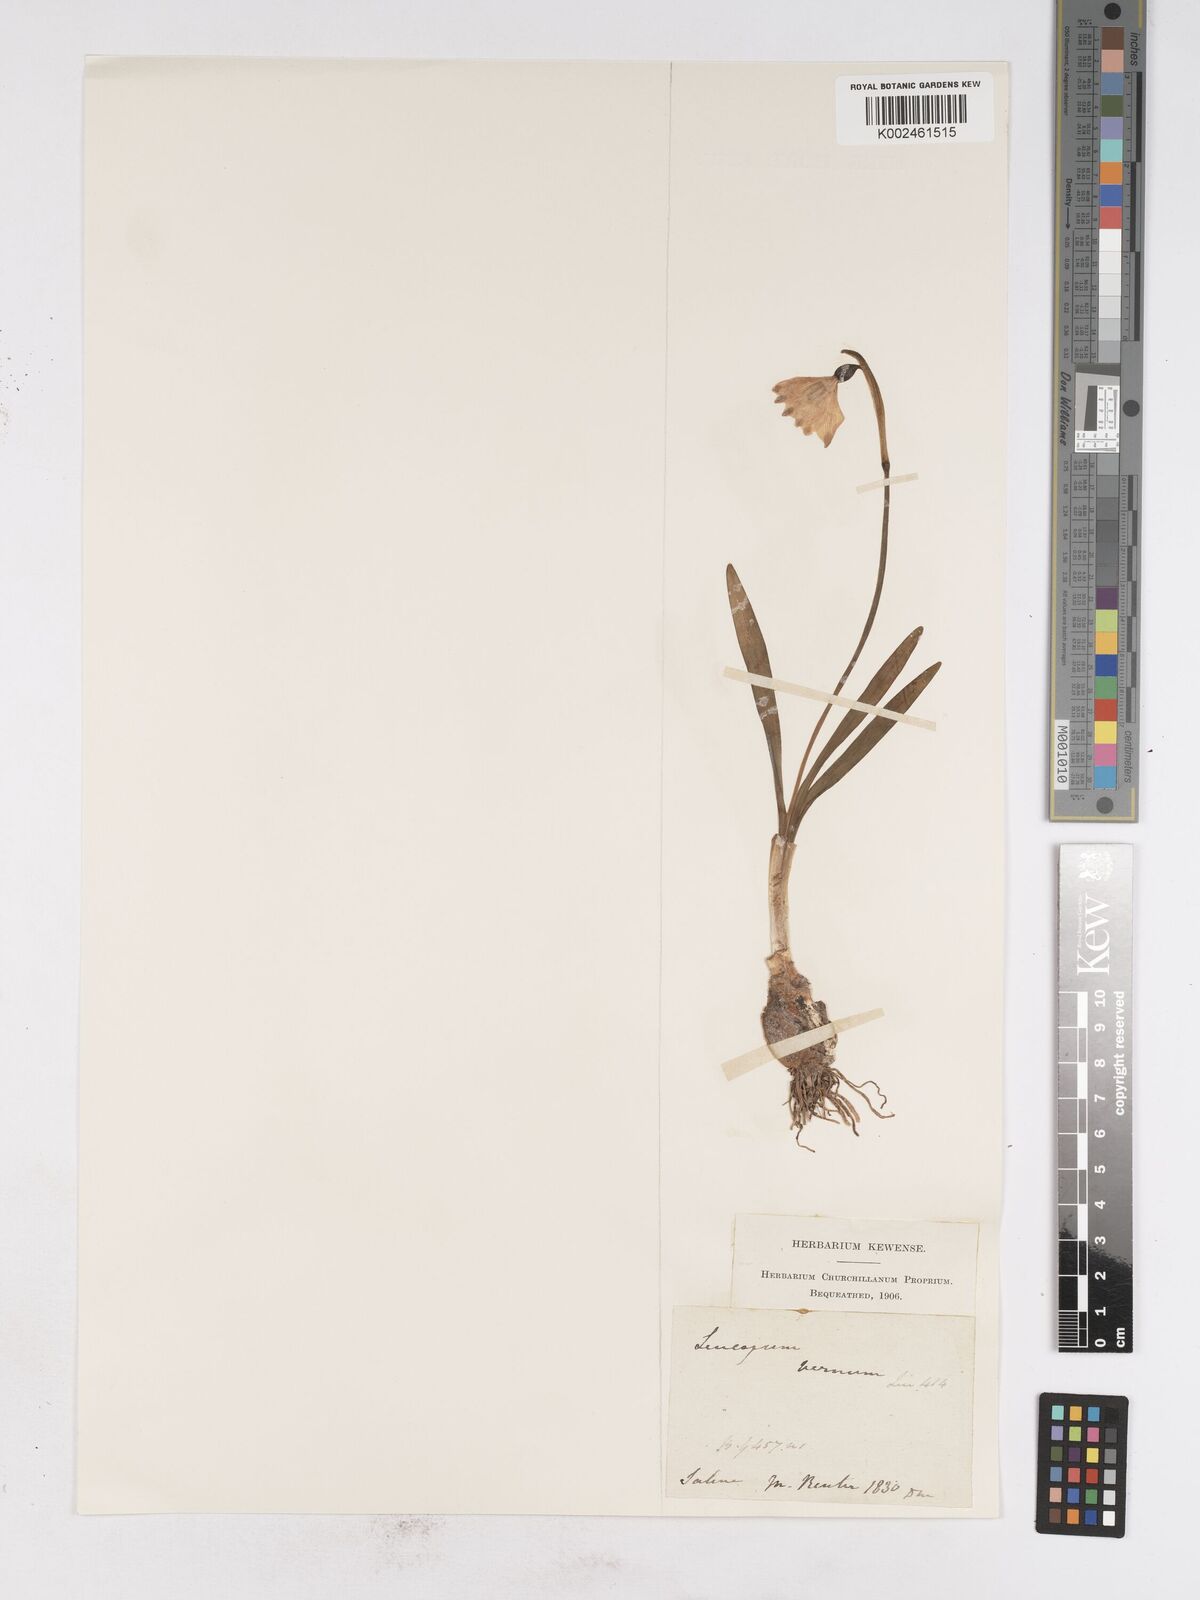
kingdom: Plantae
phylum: Tracheophyta
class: Liliopsida
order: Asparagales
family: Amaryllidaceae
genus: Leucojum
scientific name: Leucojum vernum
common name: Spring snowflake
